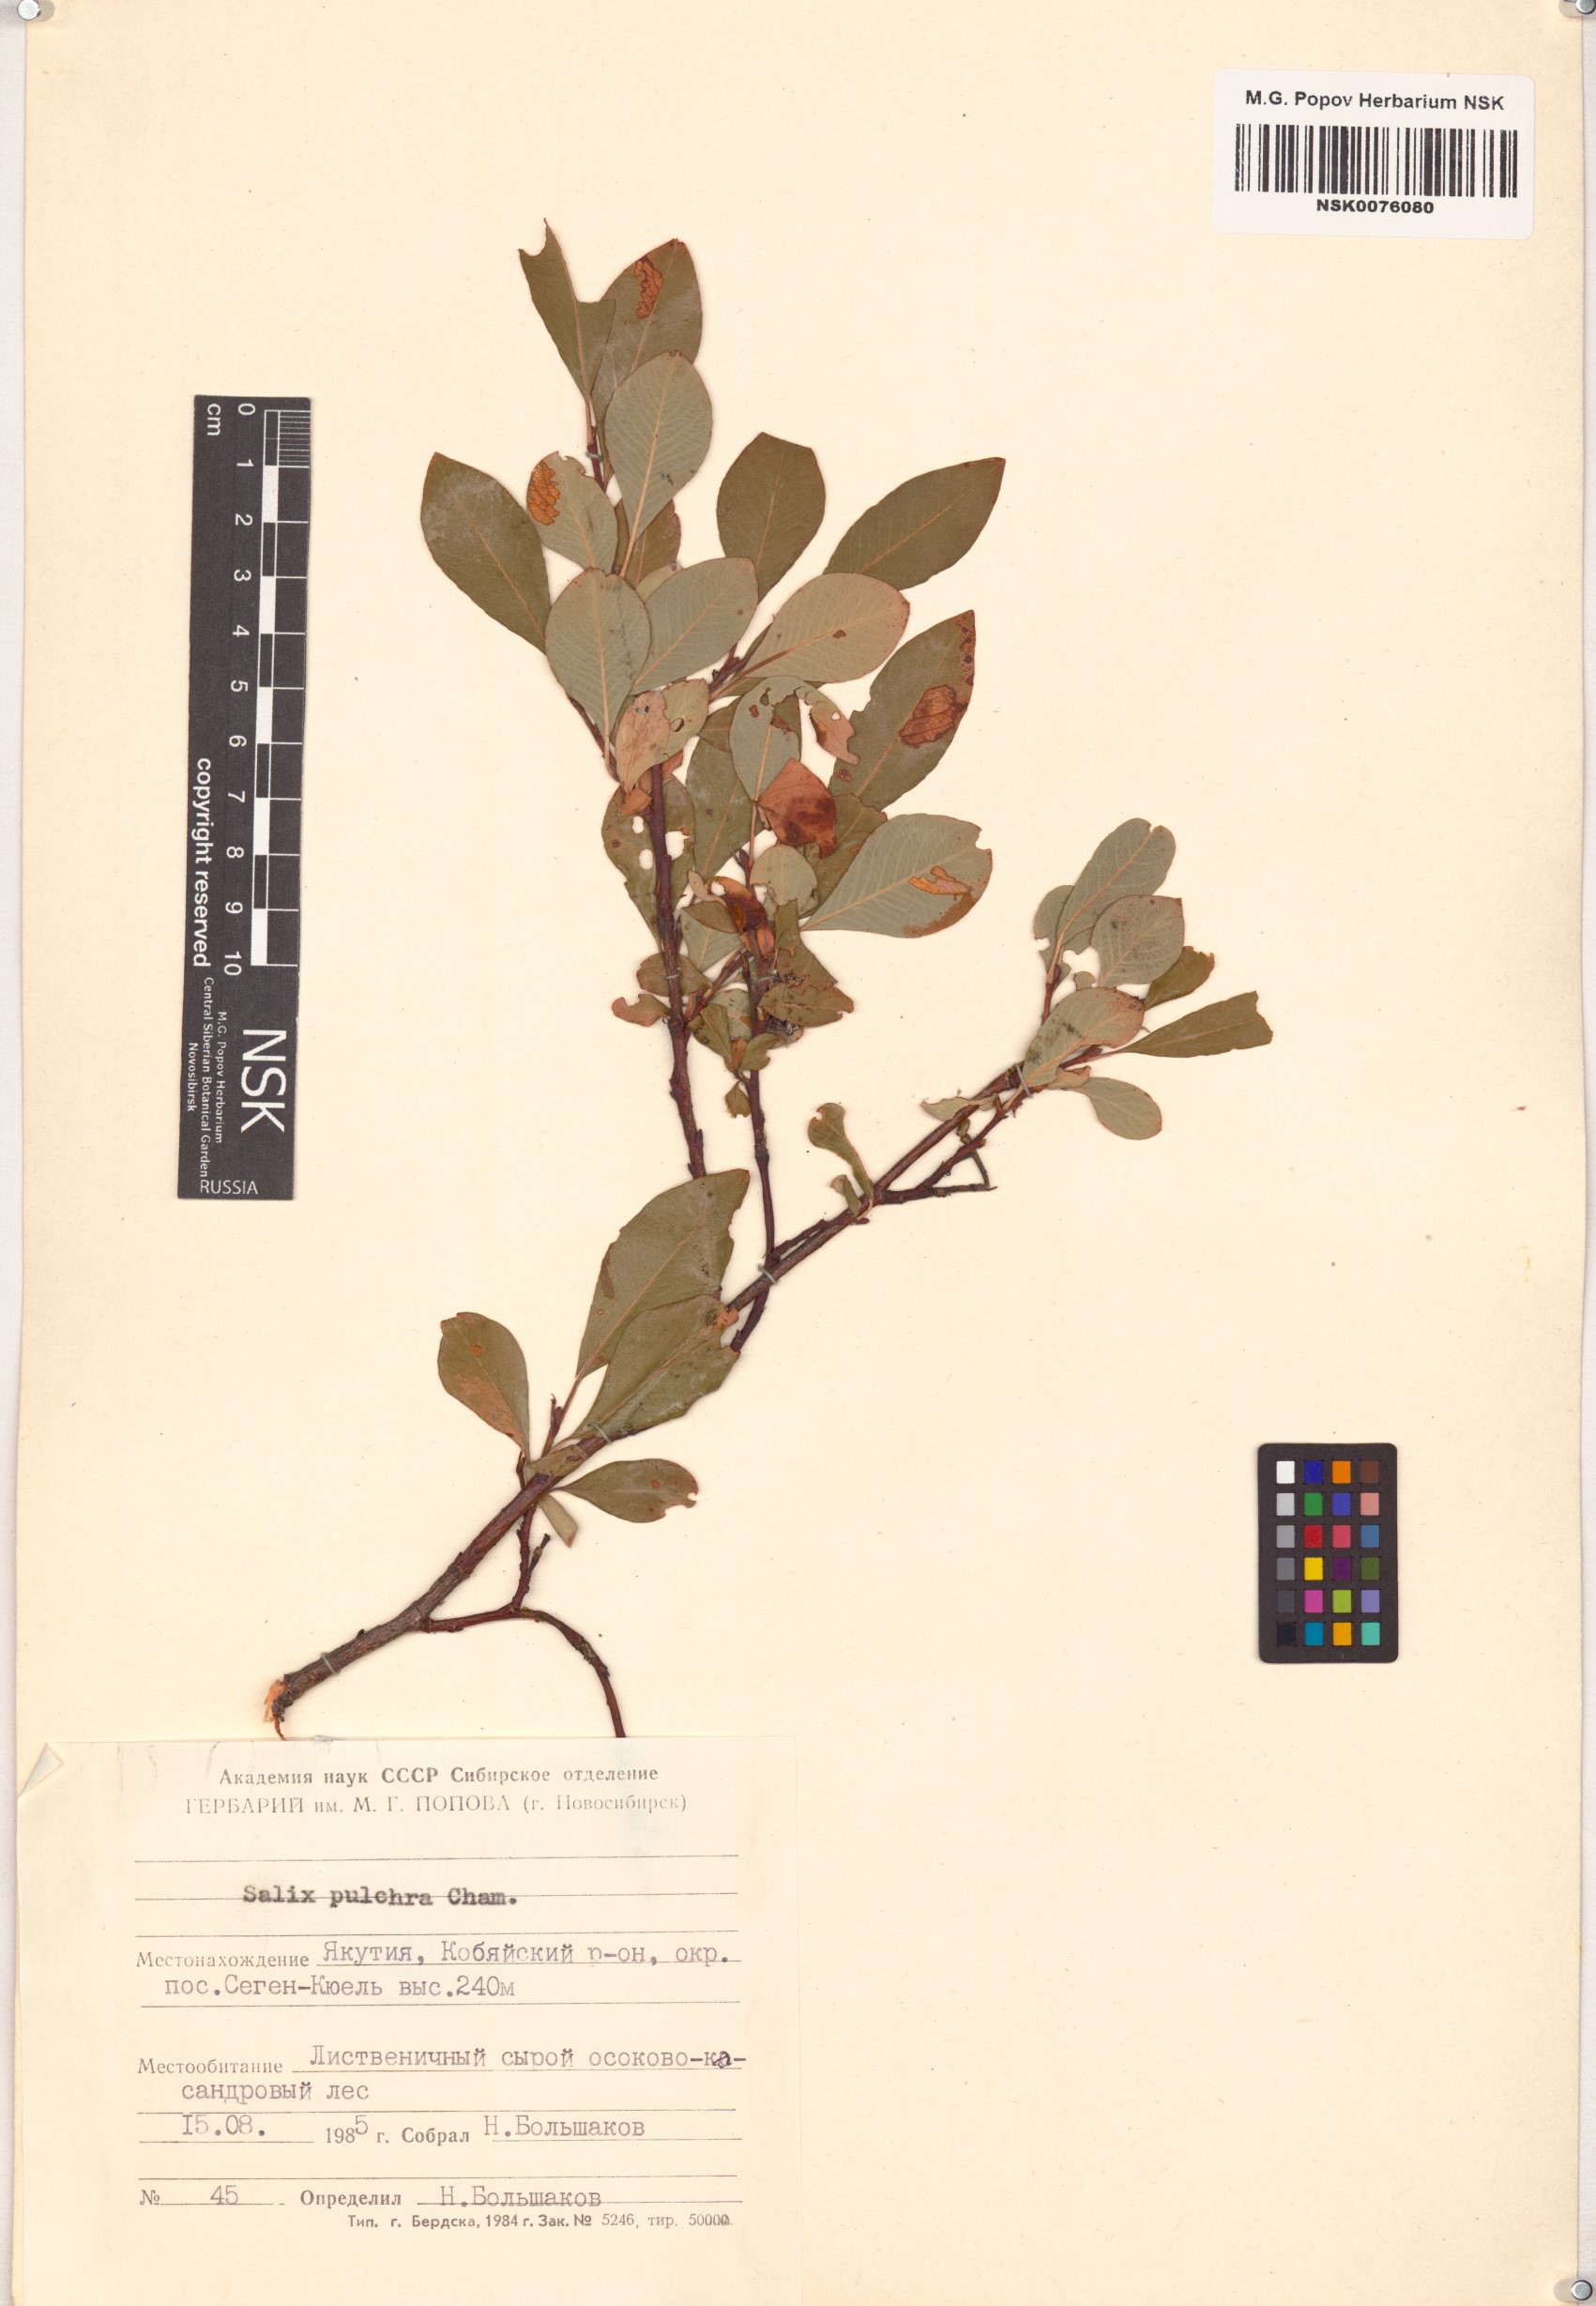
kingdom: Plantae
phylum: Tracheophyta
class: Magnoliopsida
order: Malpighiales
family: Salicaceae
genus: Salix
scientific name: Salix pulchra
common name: Diamond-leaved willow
